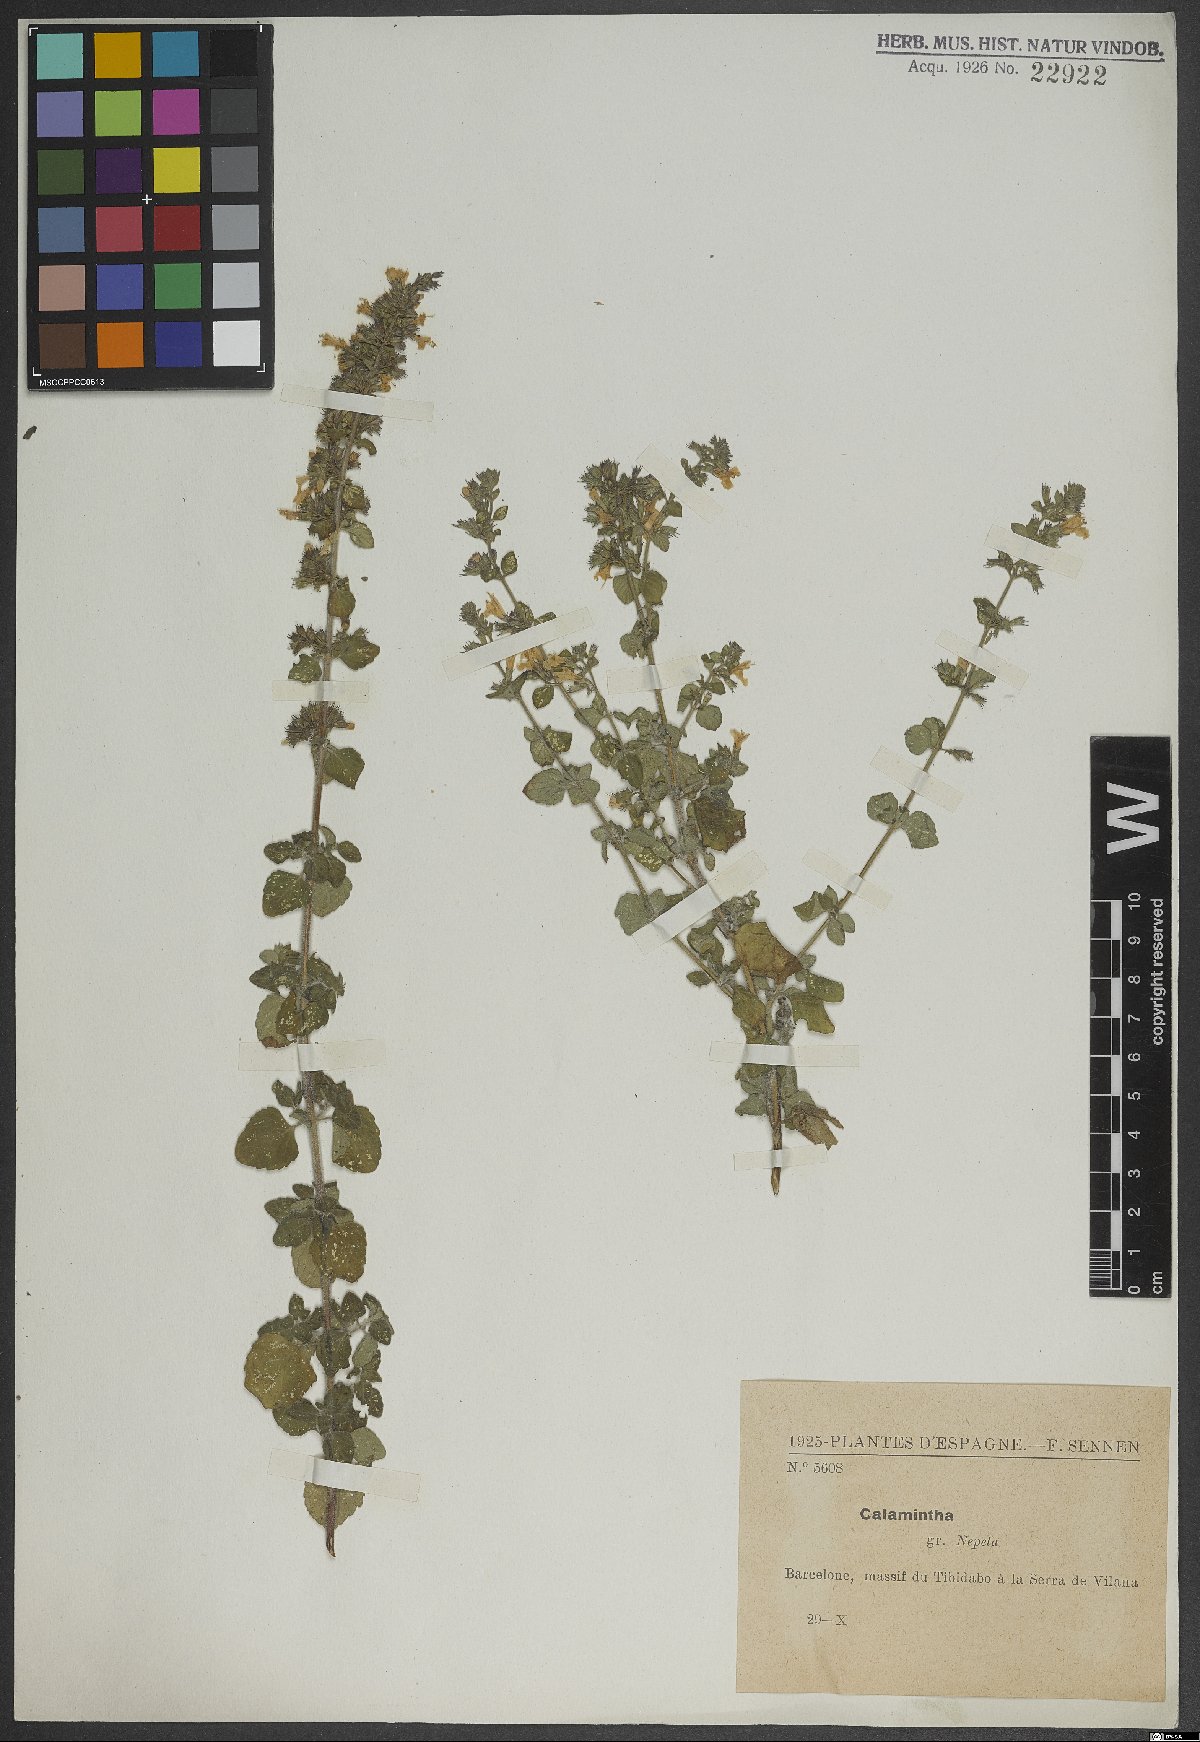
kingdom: Plantae
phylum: Tracheophyta
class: Magnoliopsida
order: Lamiales
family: Lamiaceae
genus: Clinopodium
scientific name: Clinopodium nepeta
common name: Lesser calamint
